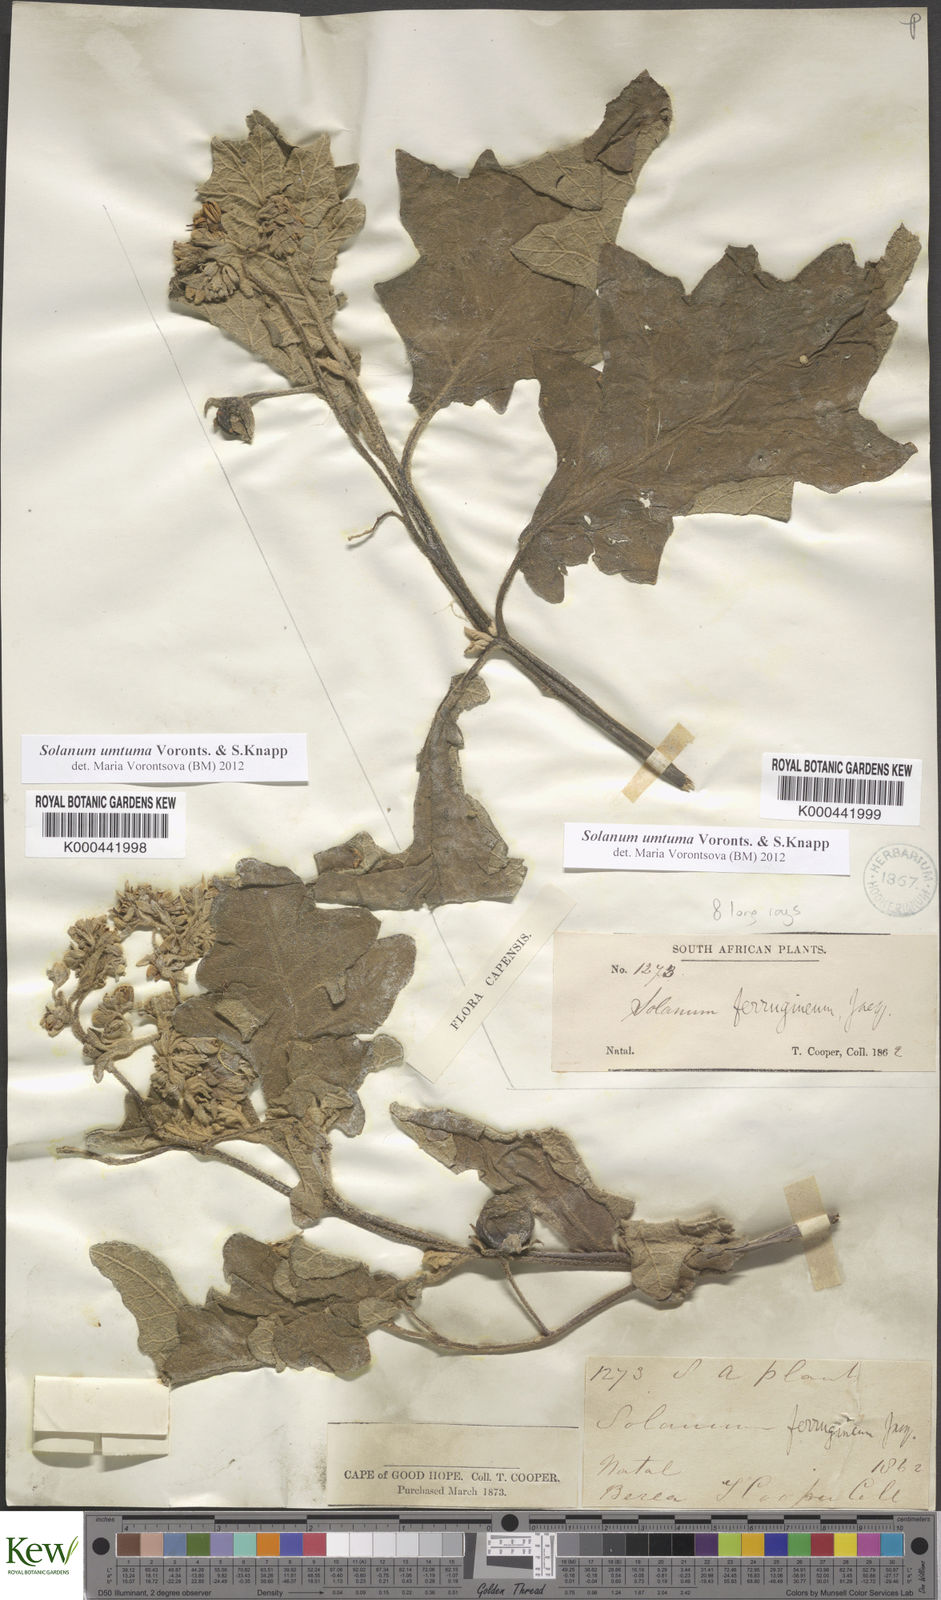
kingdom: Plantae
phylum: Tracheophyta
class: Magnoliopsida
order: Solanales
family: Solanaceae
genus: Solanum
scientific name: Solanum umtuma
